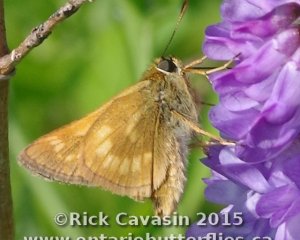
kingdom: Animalia
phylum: Arthropoda
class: Insecta
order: Lepidoptera
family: Hesperiidae
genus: Polites
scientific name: Polites
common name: Long Dash Skipper
